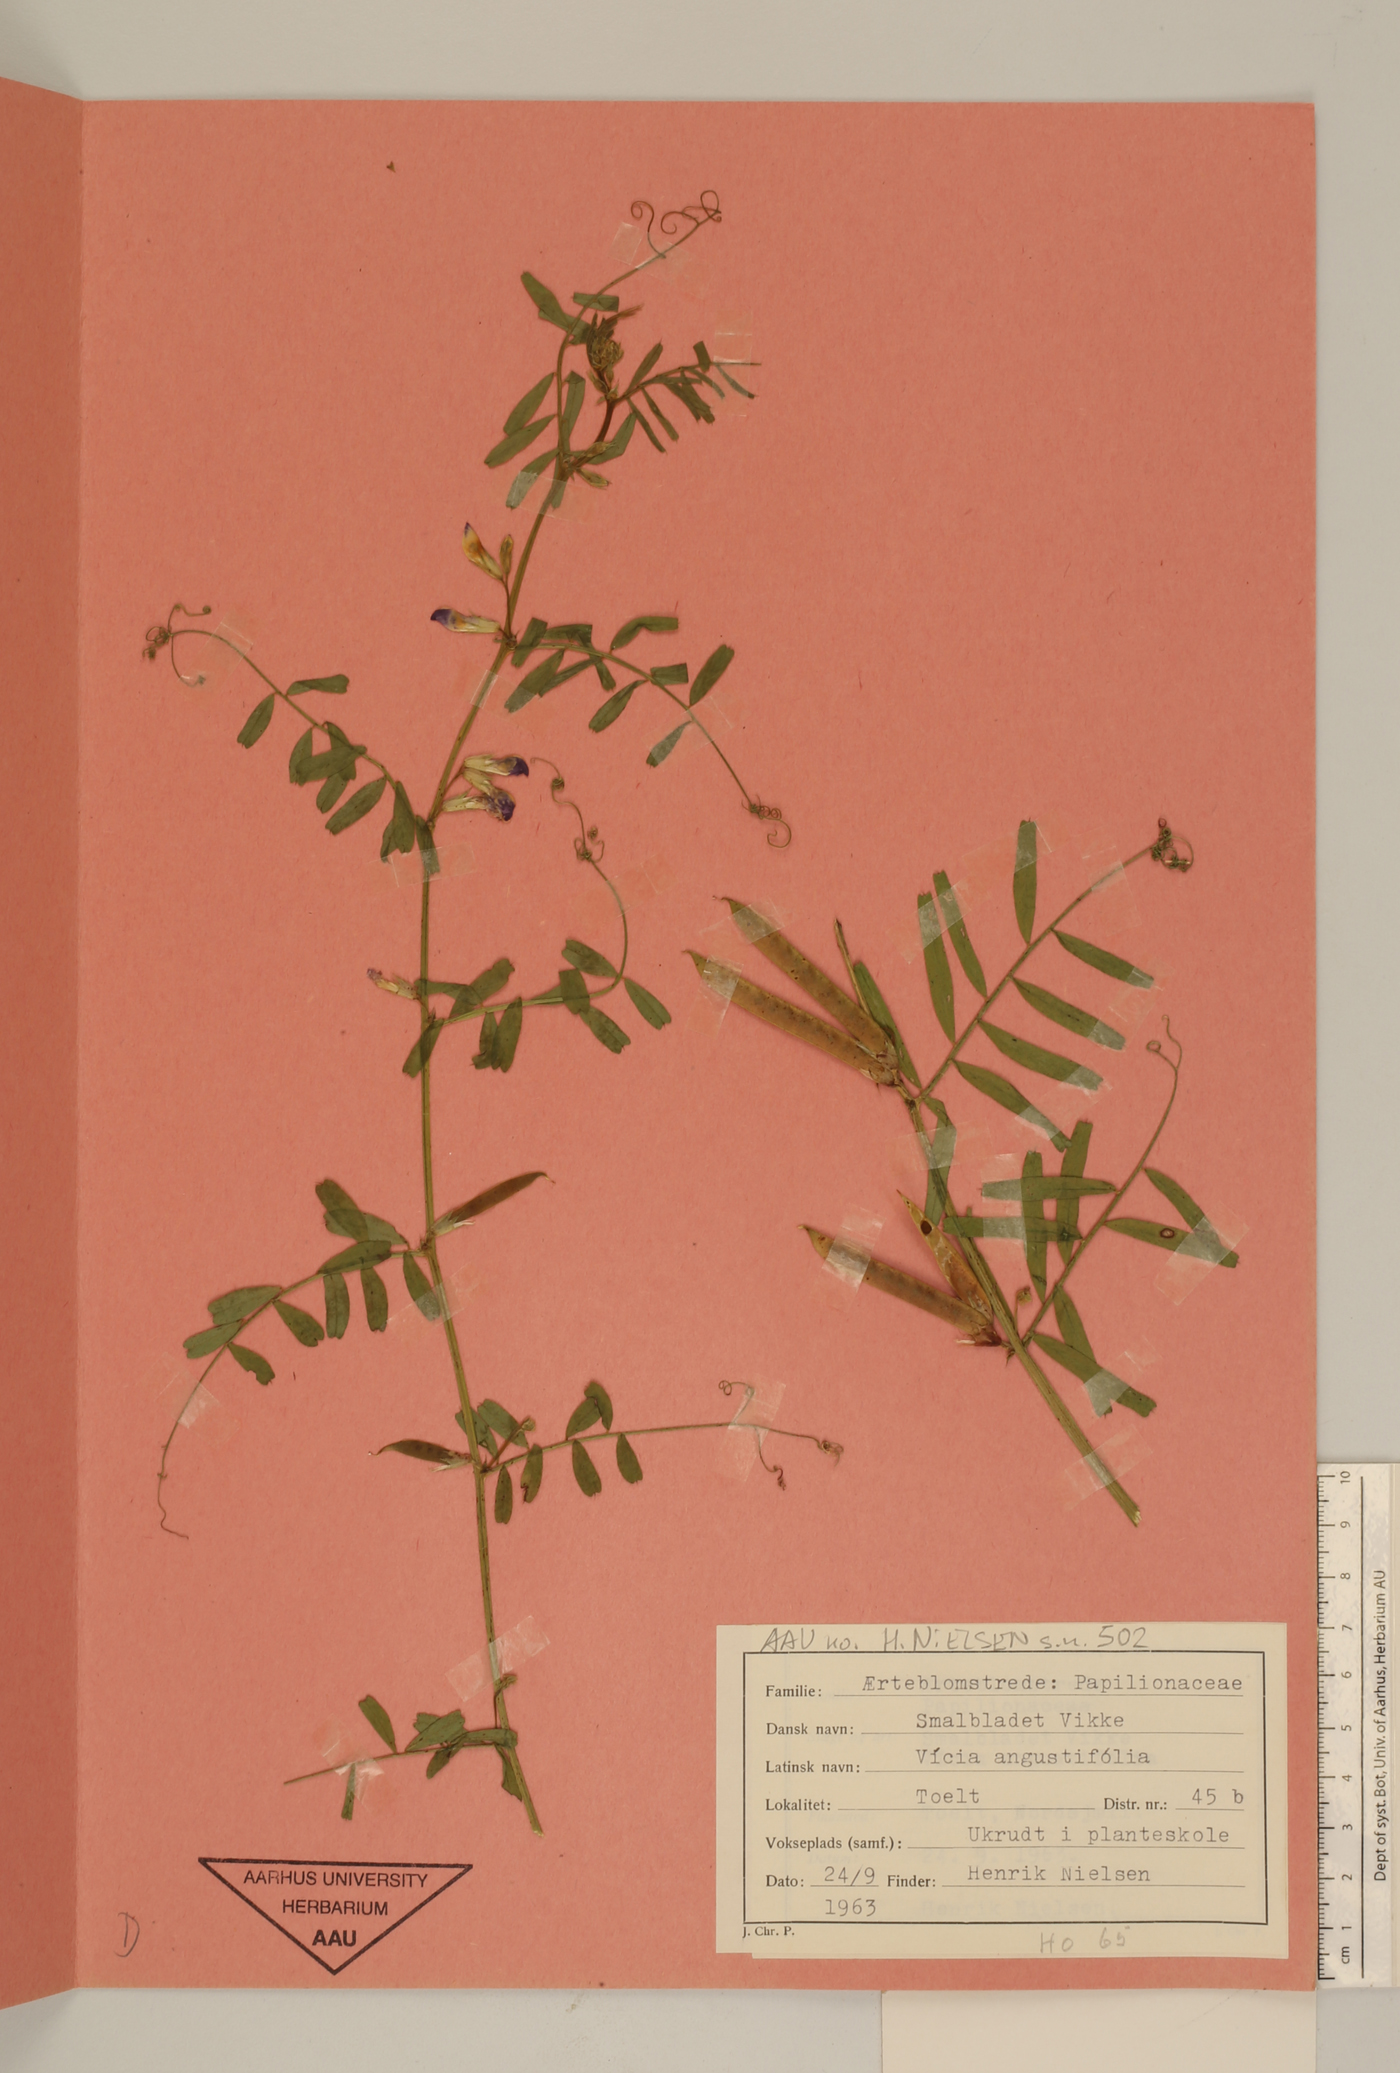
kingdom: Plantae
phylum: Tracheophyta
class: Magnoliopsida
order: Fabales
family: Fabaceae
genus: Vicia
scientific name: Vicia sativa
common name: Garden vetch
